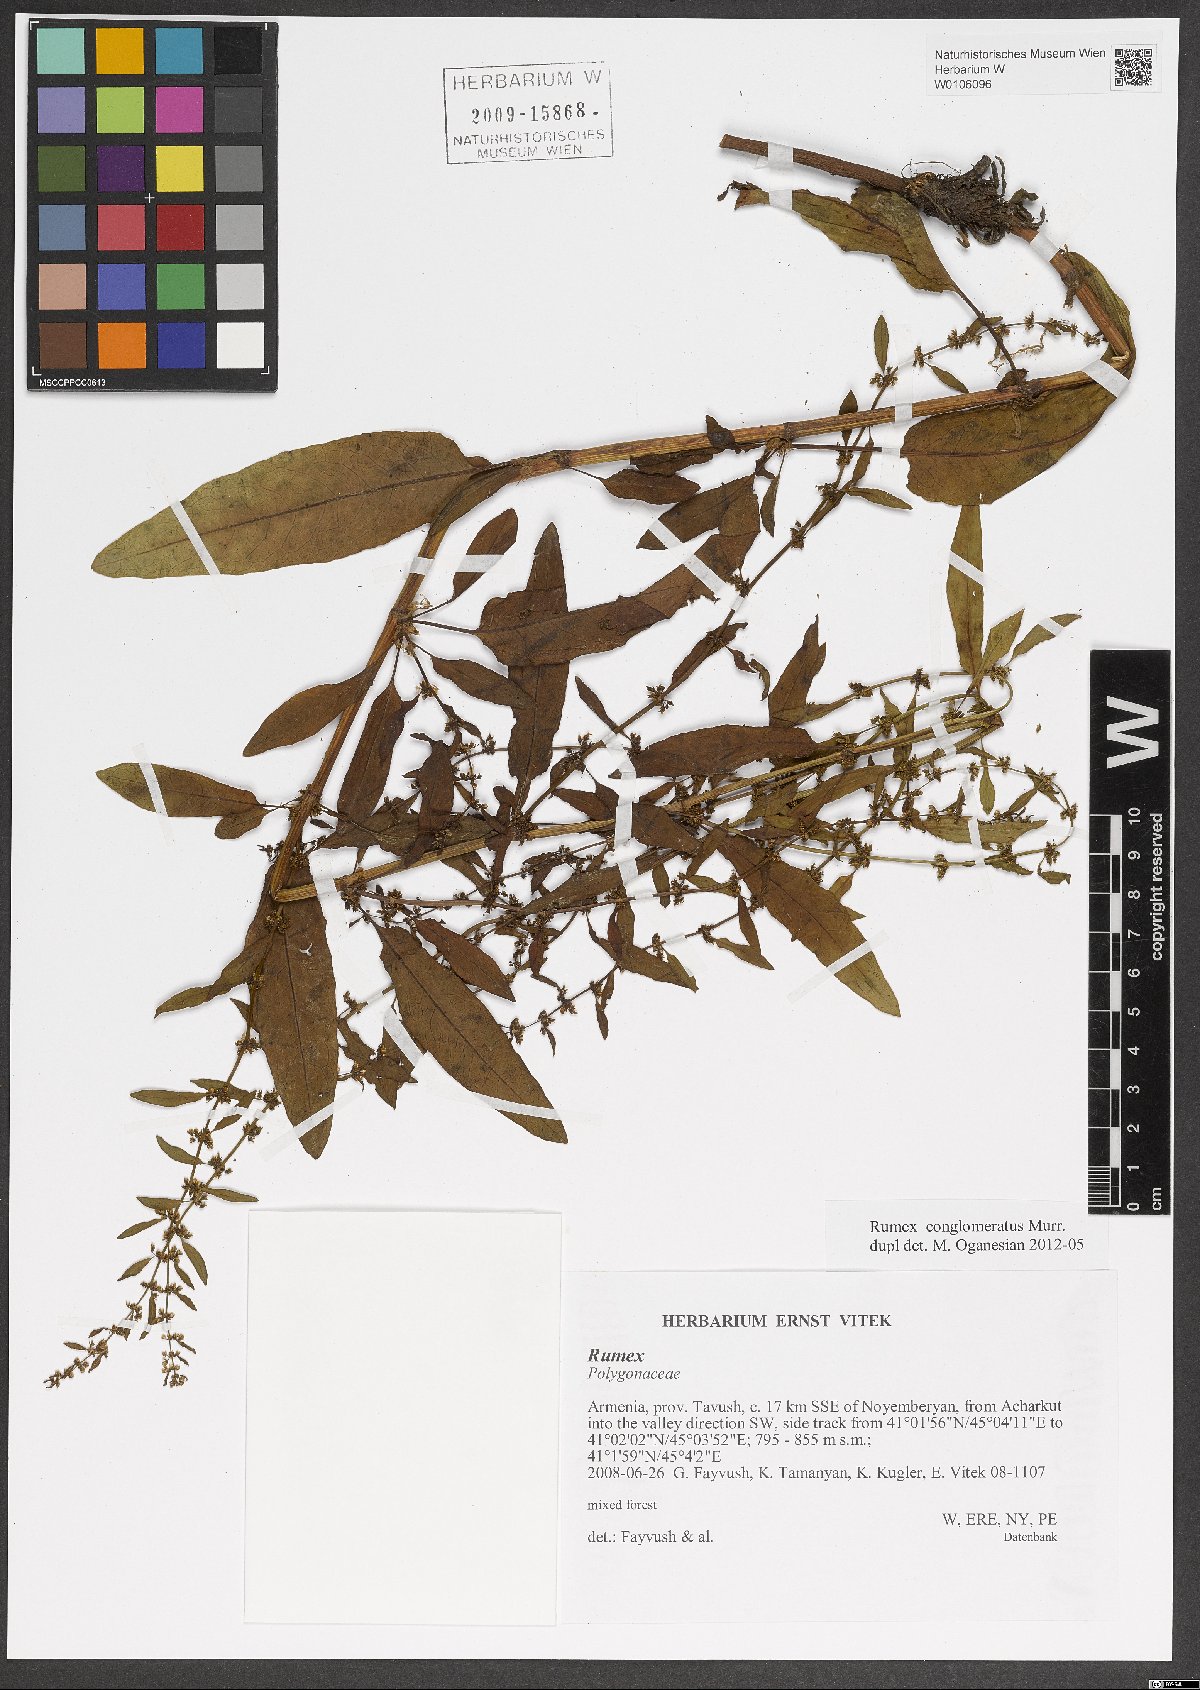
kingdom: Plantae
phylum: Tracheophyta
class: Magnoliopsida
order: Caryophyllales
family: Polygonaceae
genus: Rumex
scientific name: Rumex conglomeratus
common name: Clustered dock
